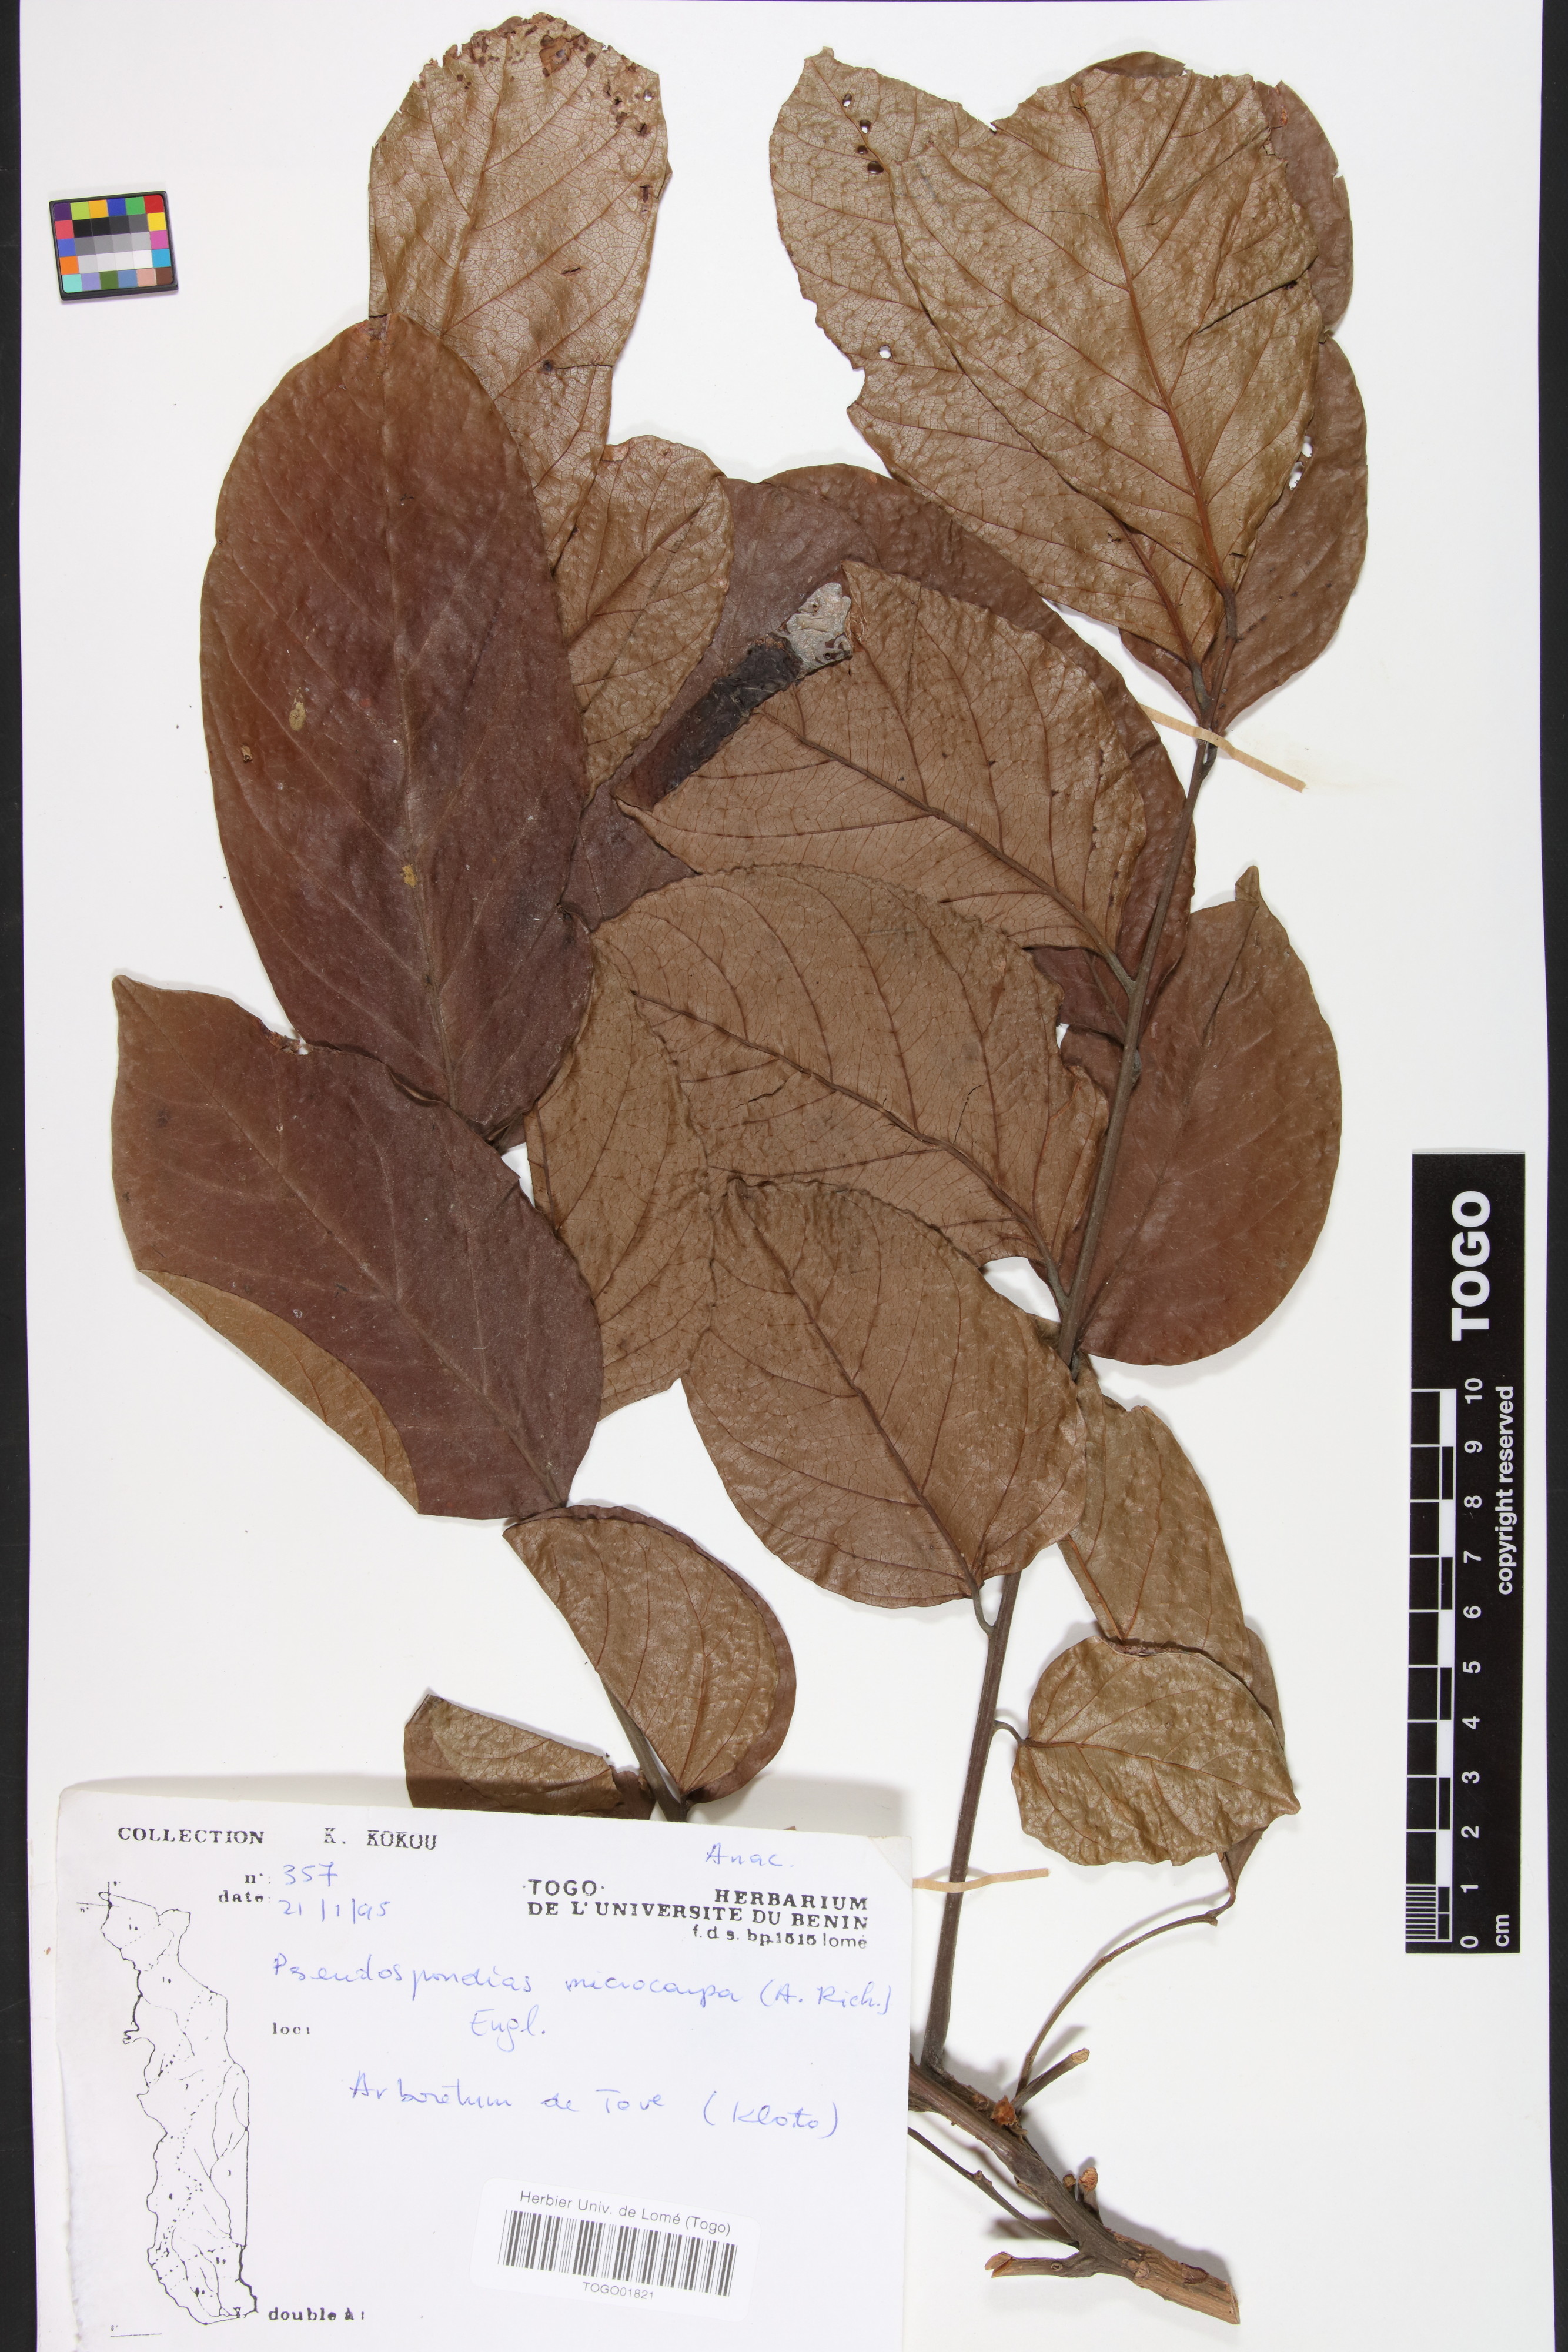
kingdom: Plantae
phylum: Tracheophyta
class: Magnoliopsida
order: Sapindales
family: Anacardiaceae
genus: Pseudospondias
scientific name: Pseudospondias microcarpa
